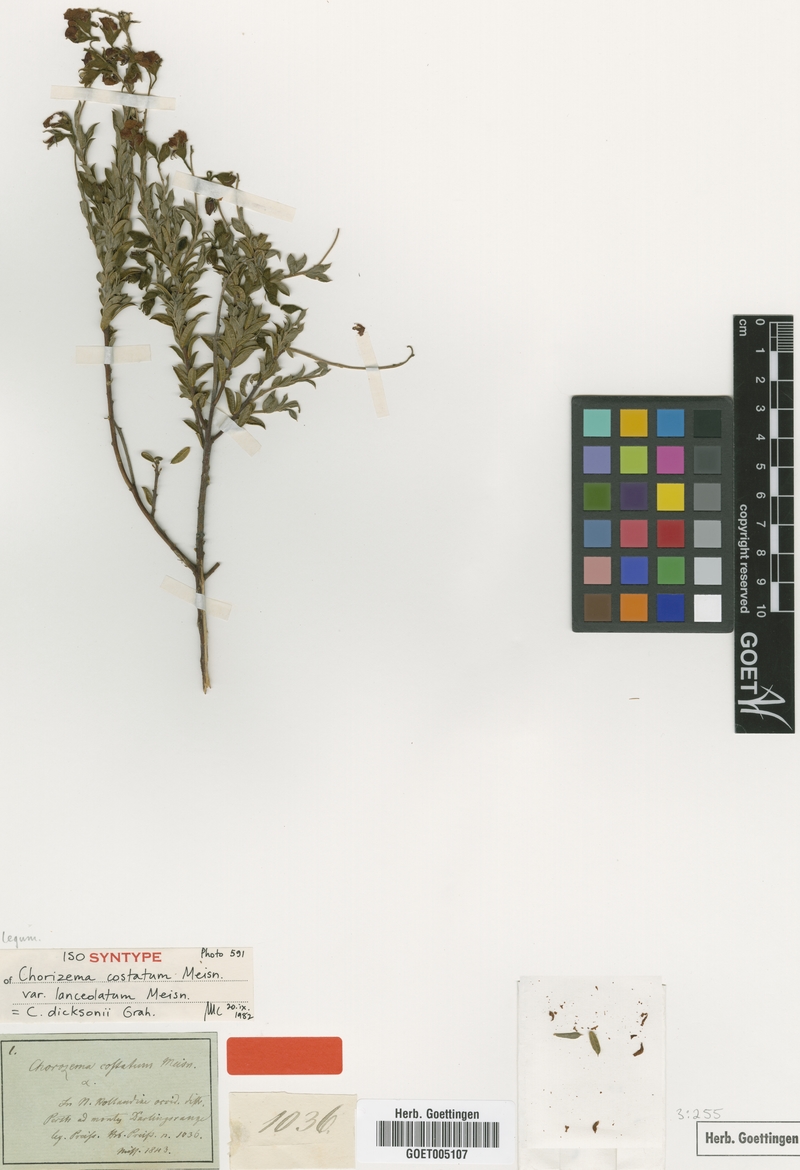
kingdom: Plantae
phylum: Tracheophyta
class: Magnoliopsida
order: Fabales
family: Fabaceae
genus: Chorizema
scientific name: Chorizema dicksonii
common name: Yellow-eyed flame-pea
